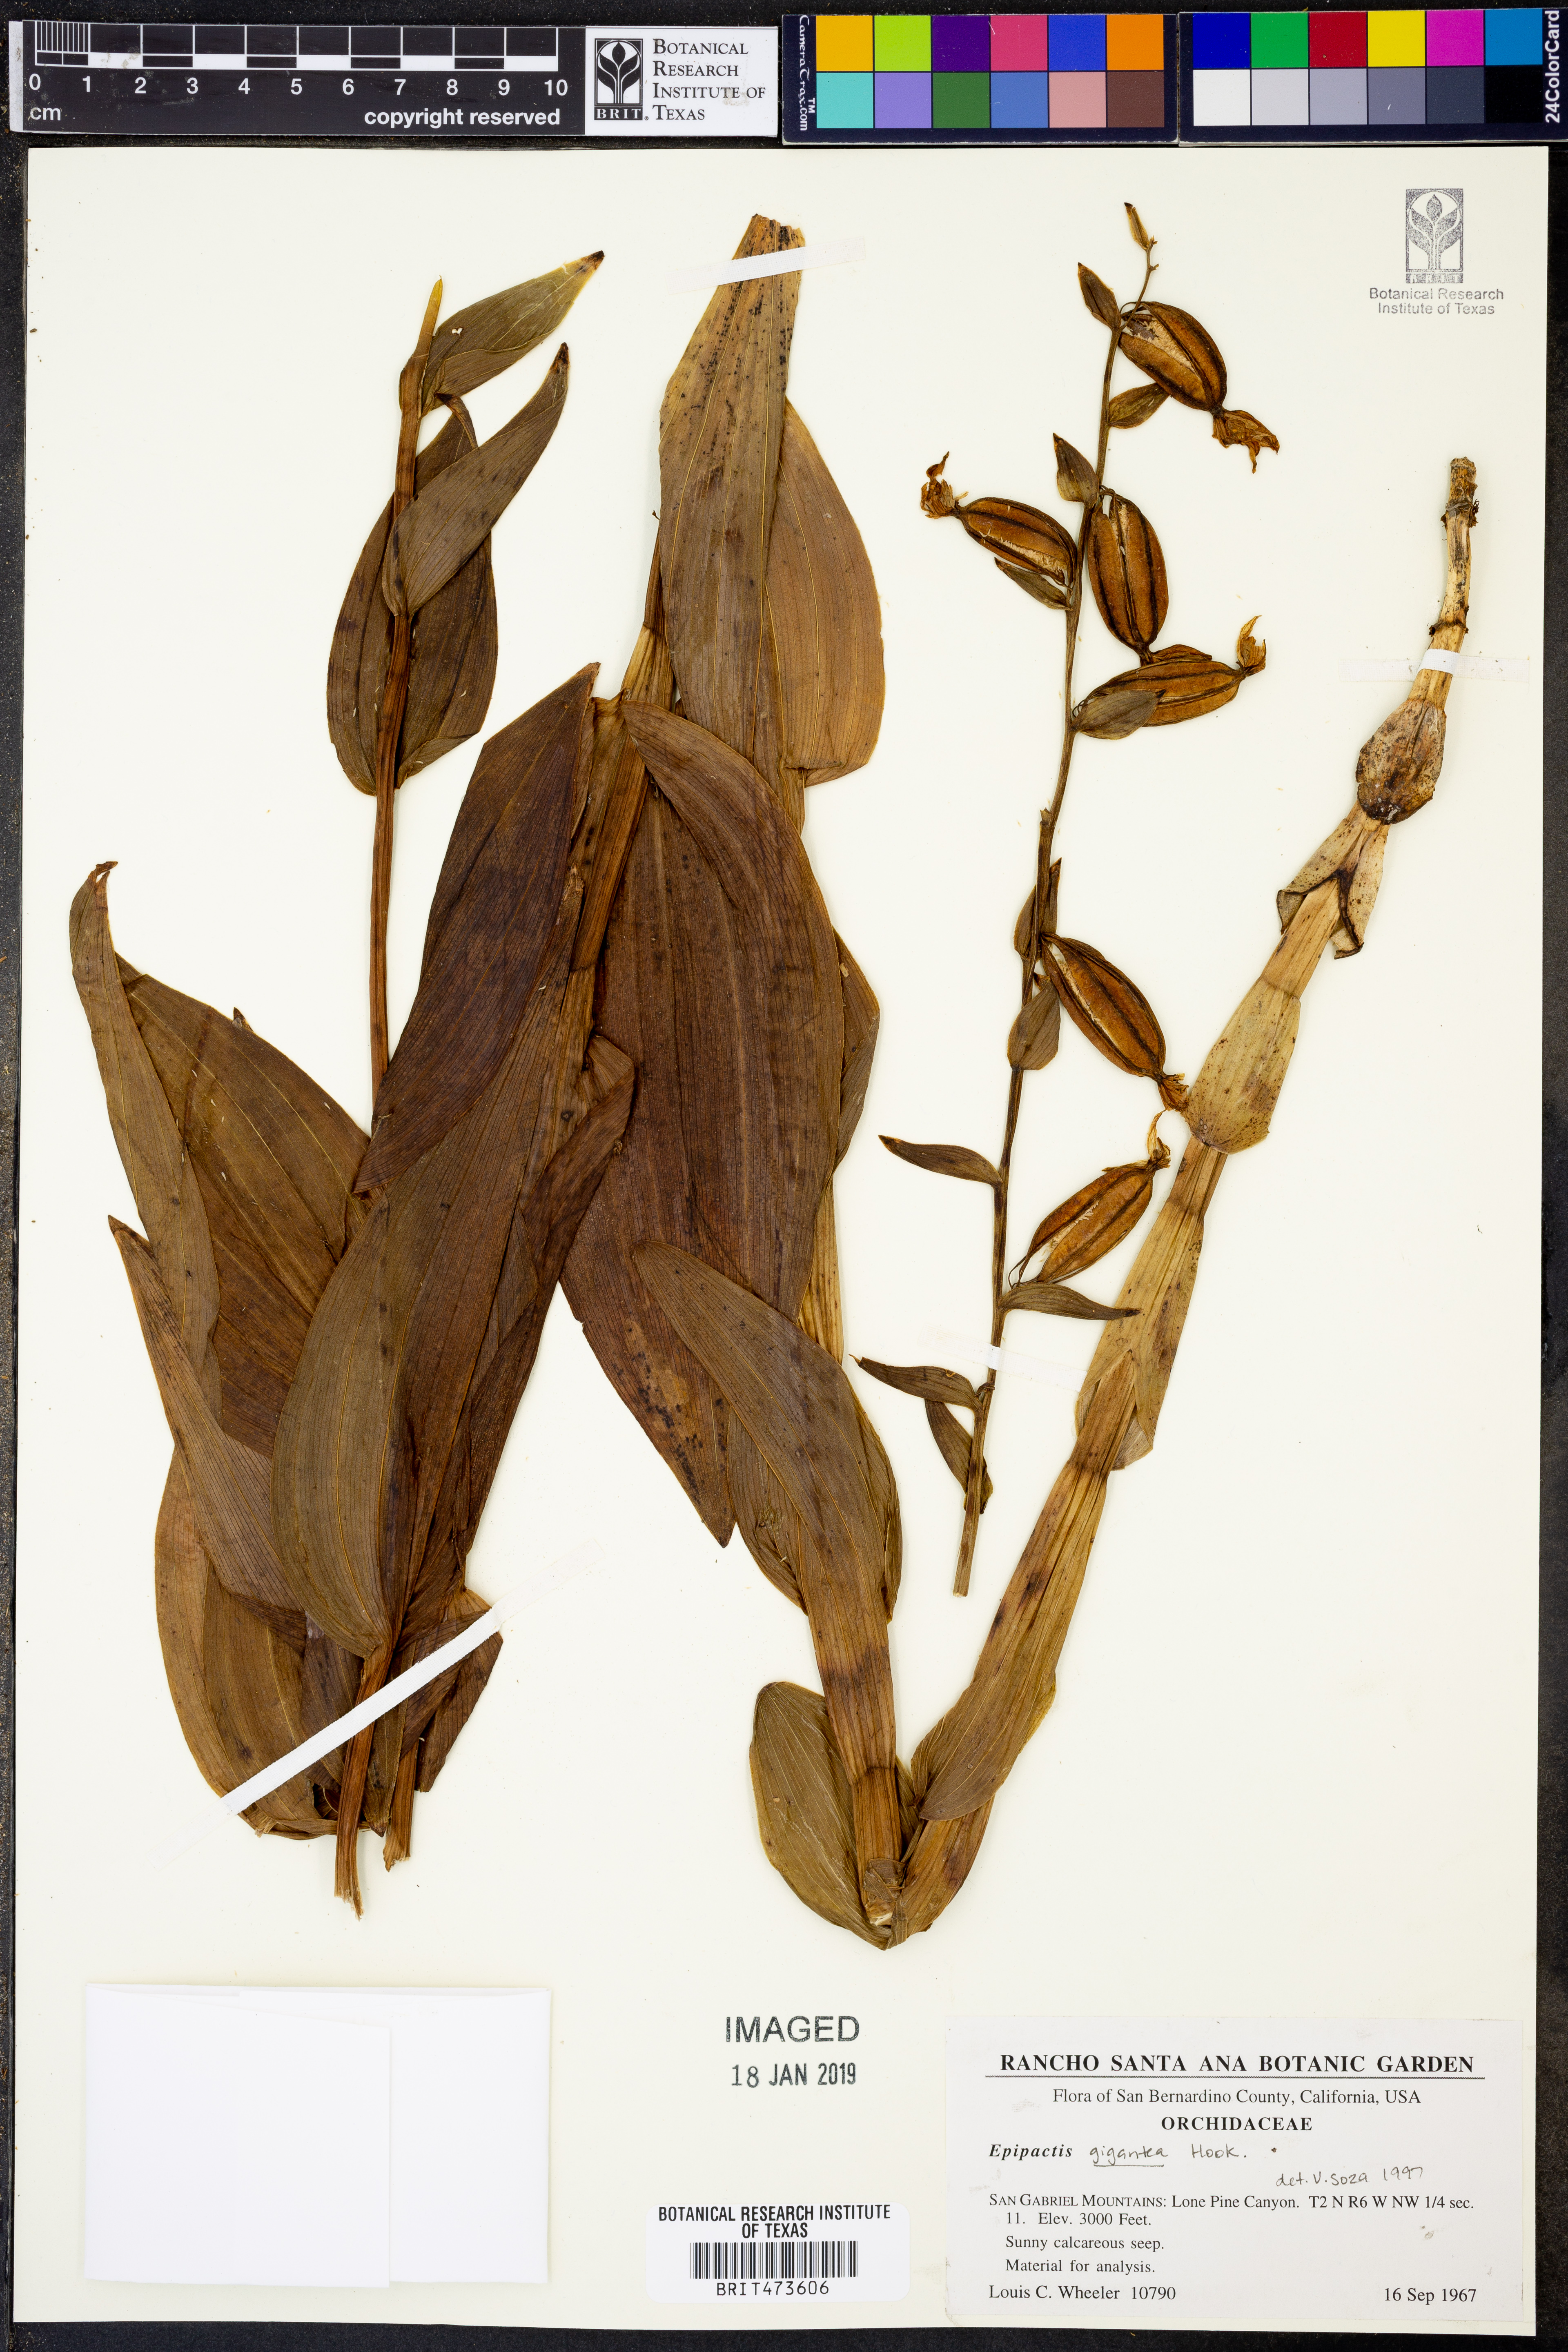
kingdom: Plantae
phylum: Tracheophyta
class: Liliopsida
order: Asparagales
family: Orchidaceae
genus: Epipactis
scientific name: Epipactis gigantea
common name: Chatterbox
